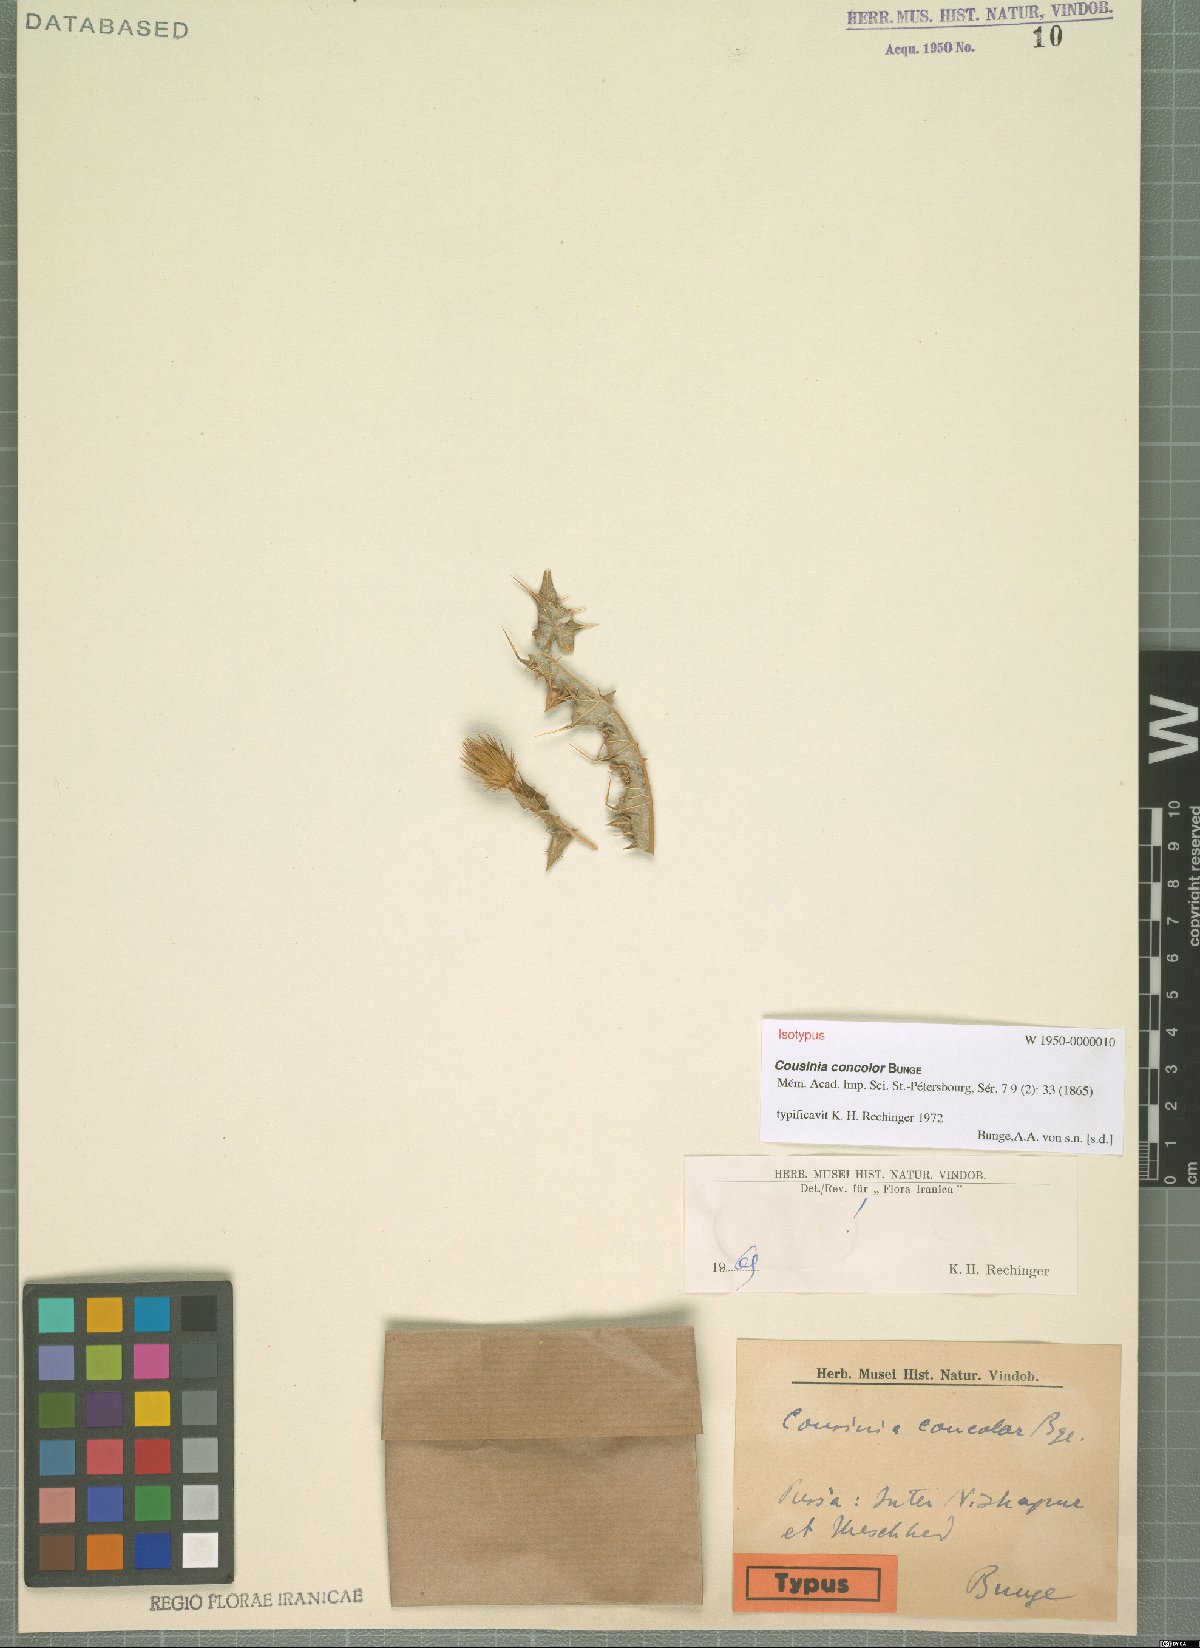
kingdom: Plantae
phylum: Tracheophyta
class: Magnoliopsida
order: Asterales
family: Asteraceae
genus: Cousinia
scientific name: Cousinia concolor
